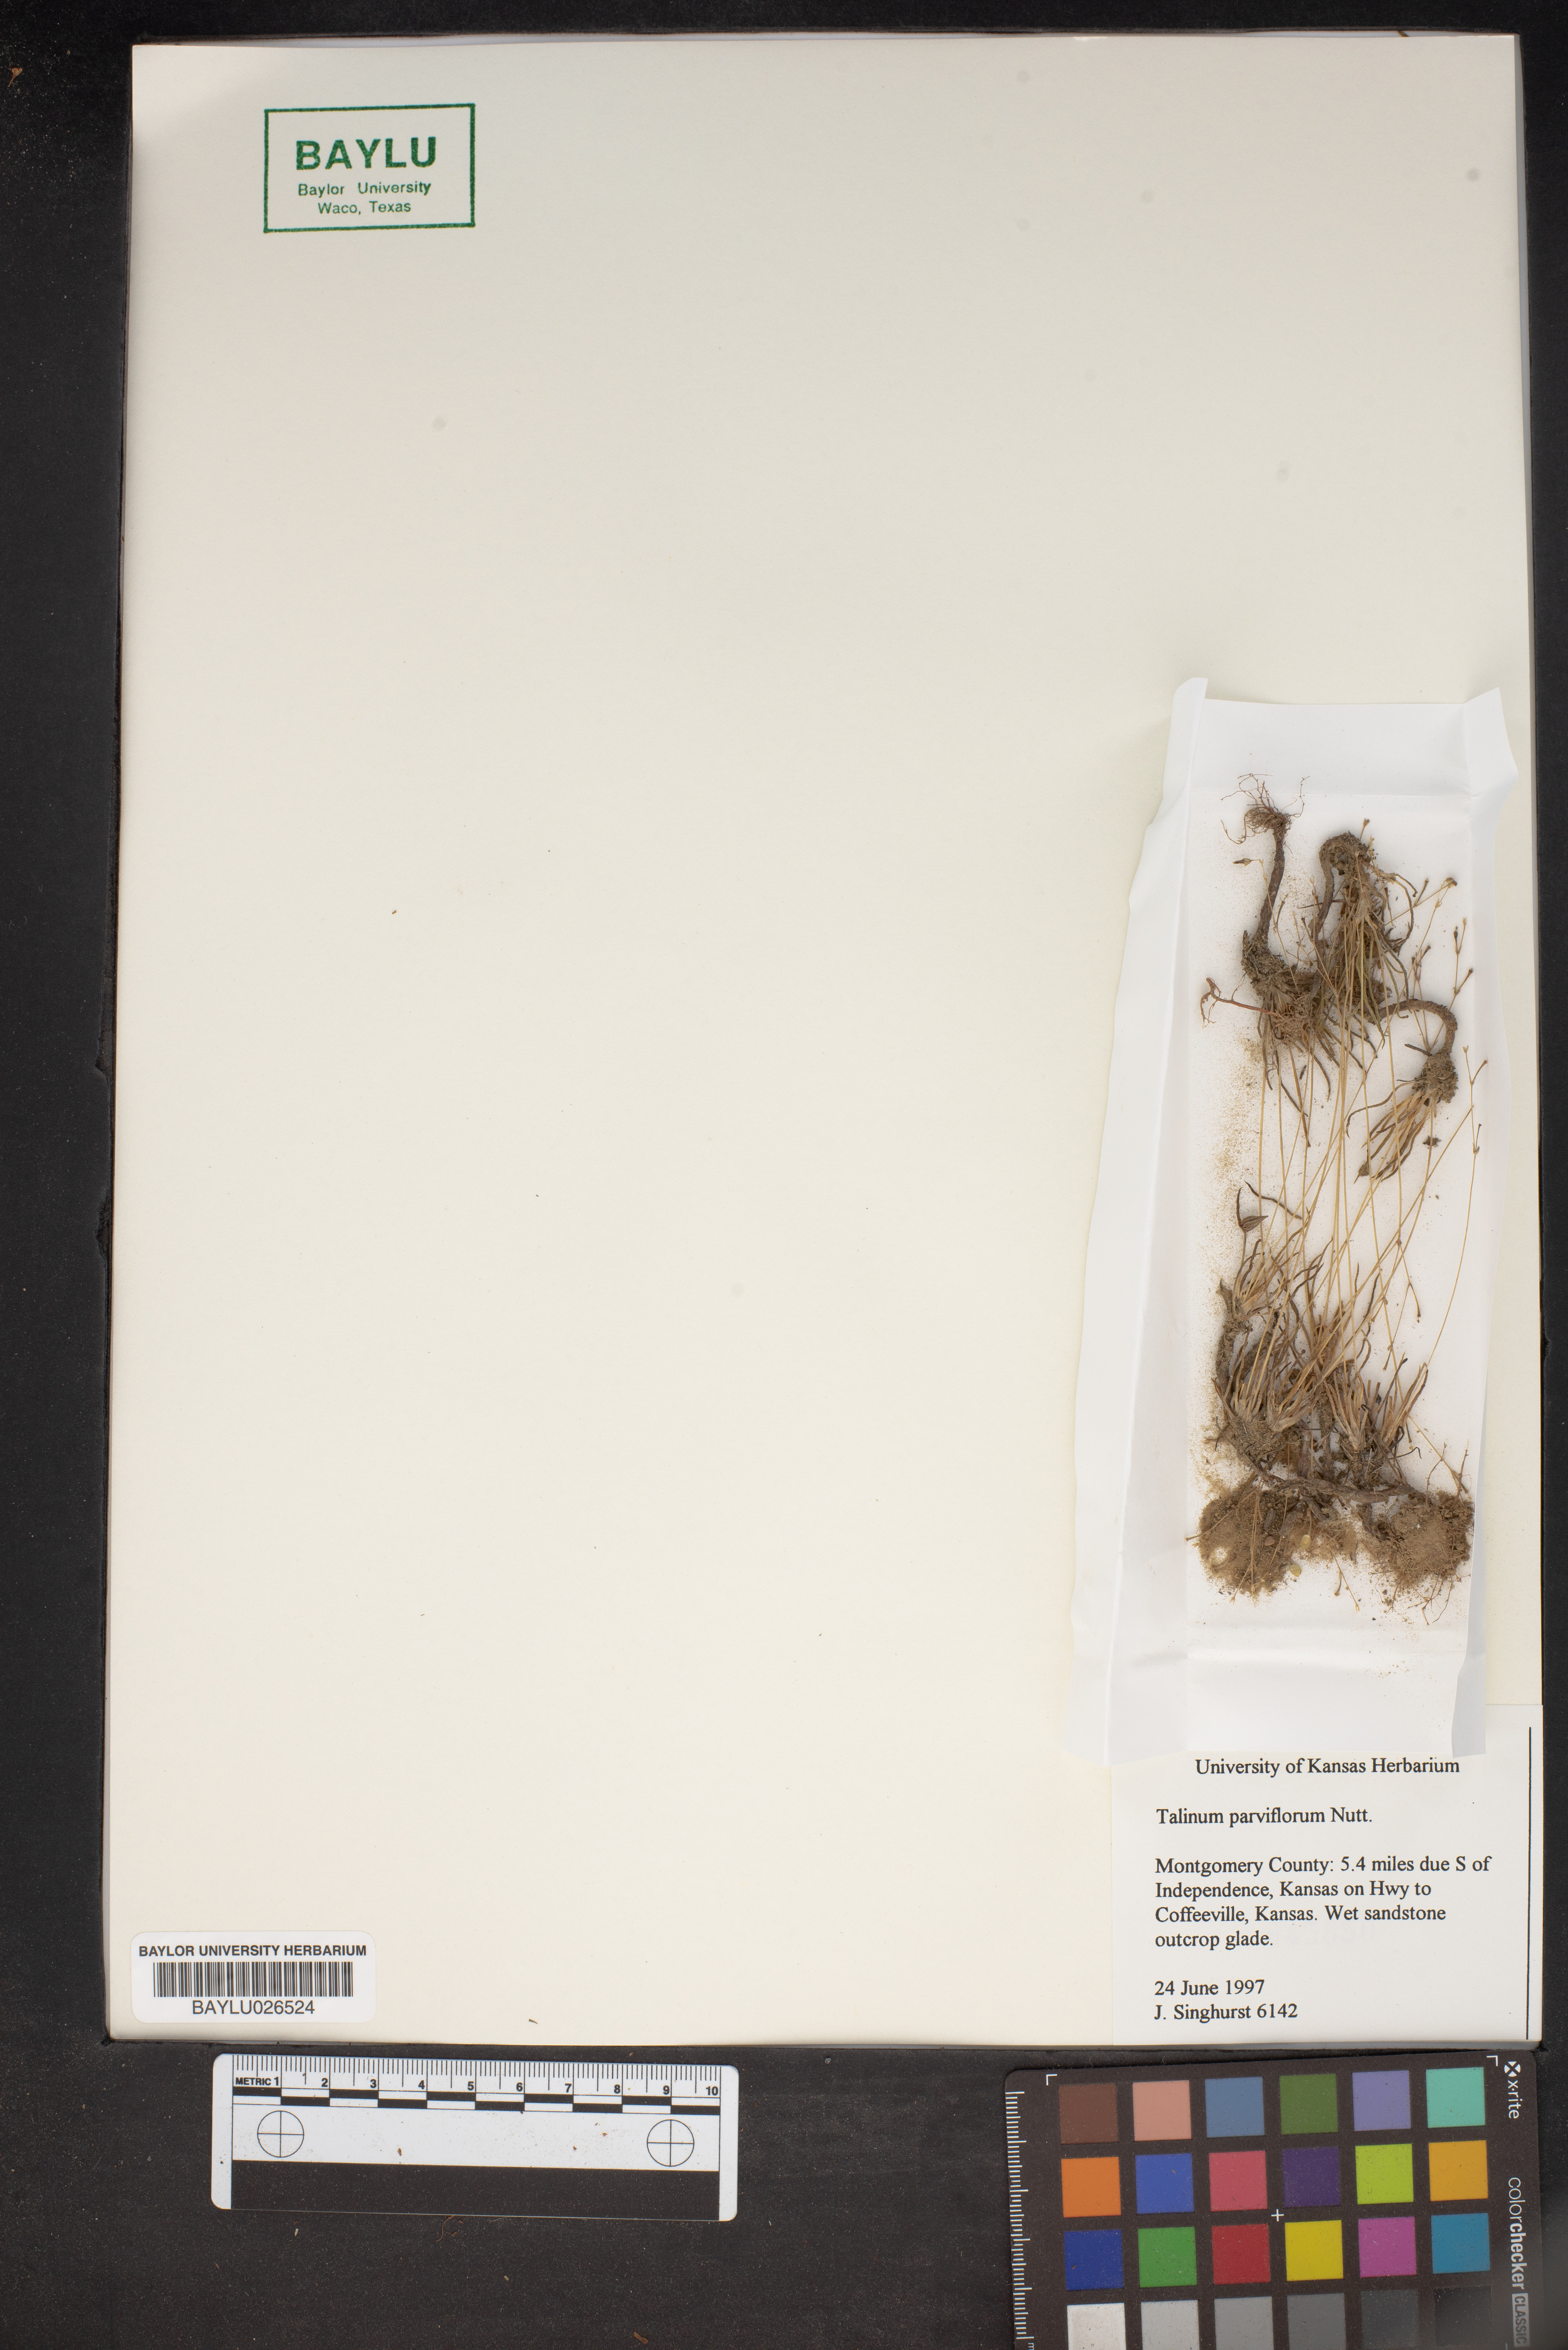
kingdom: Plantae
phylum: Tracheophyta
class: Magnoliopsida
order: Caryophyllales
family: Montiaceae
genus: Phemeranthus
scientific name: Phemeranthus parviflorus
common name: Sunbright
